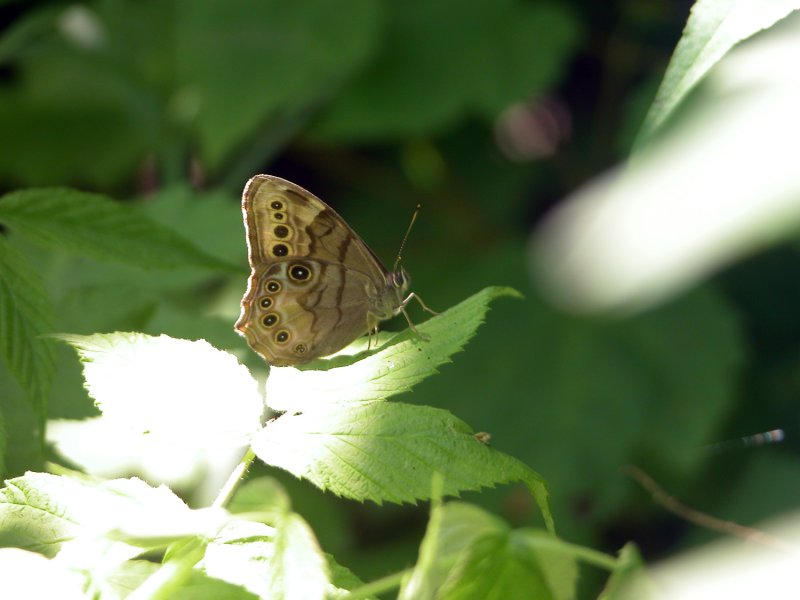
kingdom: Animalia
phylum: Arthropoda
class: Insecta
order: Lepidoptera
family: Nymphalidae
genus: Lethe
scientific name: Lethe anthedon
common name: Northern Pearly-Eye
